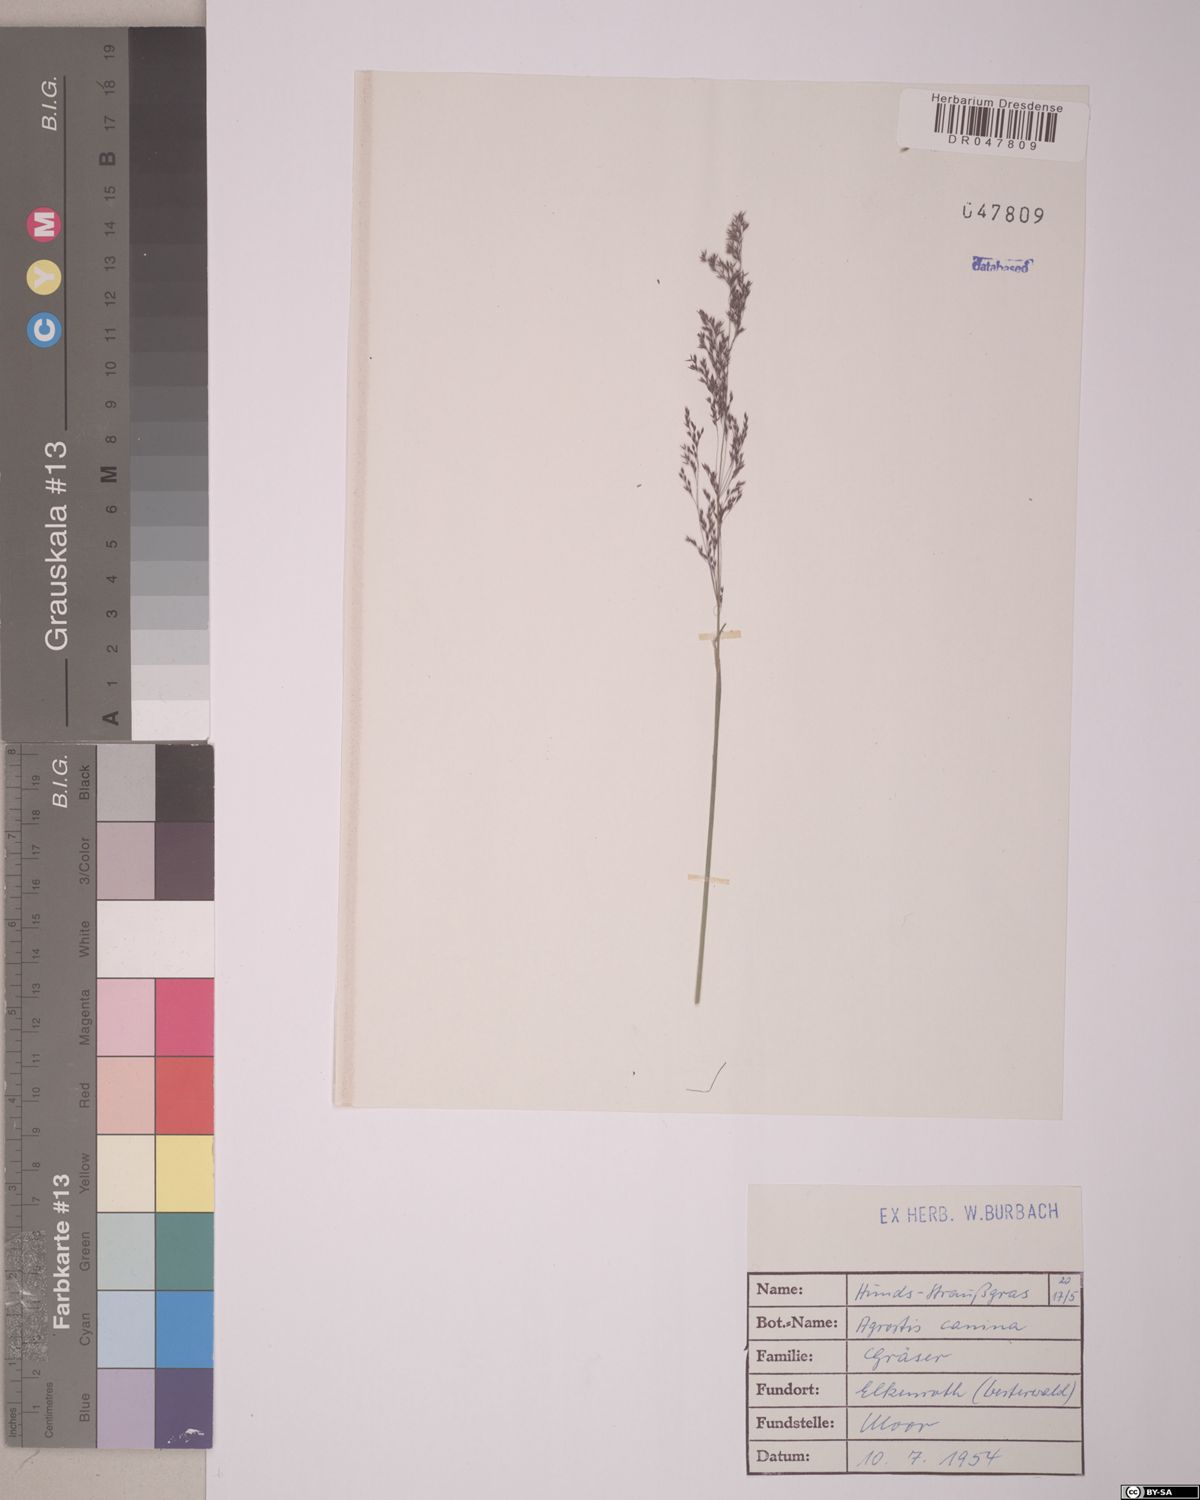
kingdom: Plantae
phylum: Tracheophyta
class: Liliopsida
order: Poales
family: Poaceae
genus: Agrostis
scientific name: Agrostis canina
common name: Velvet bent
